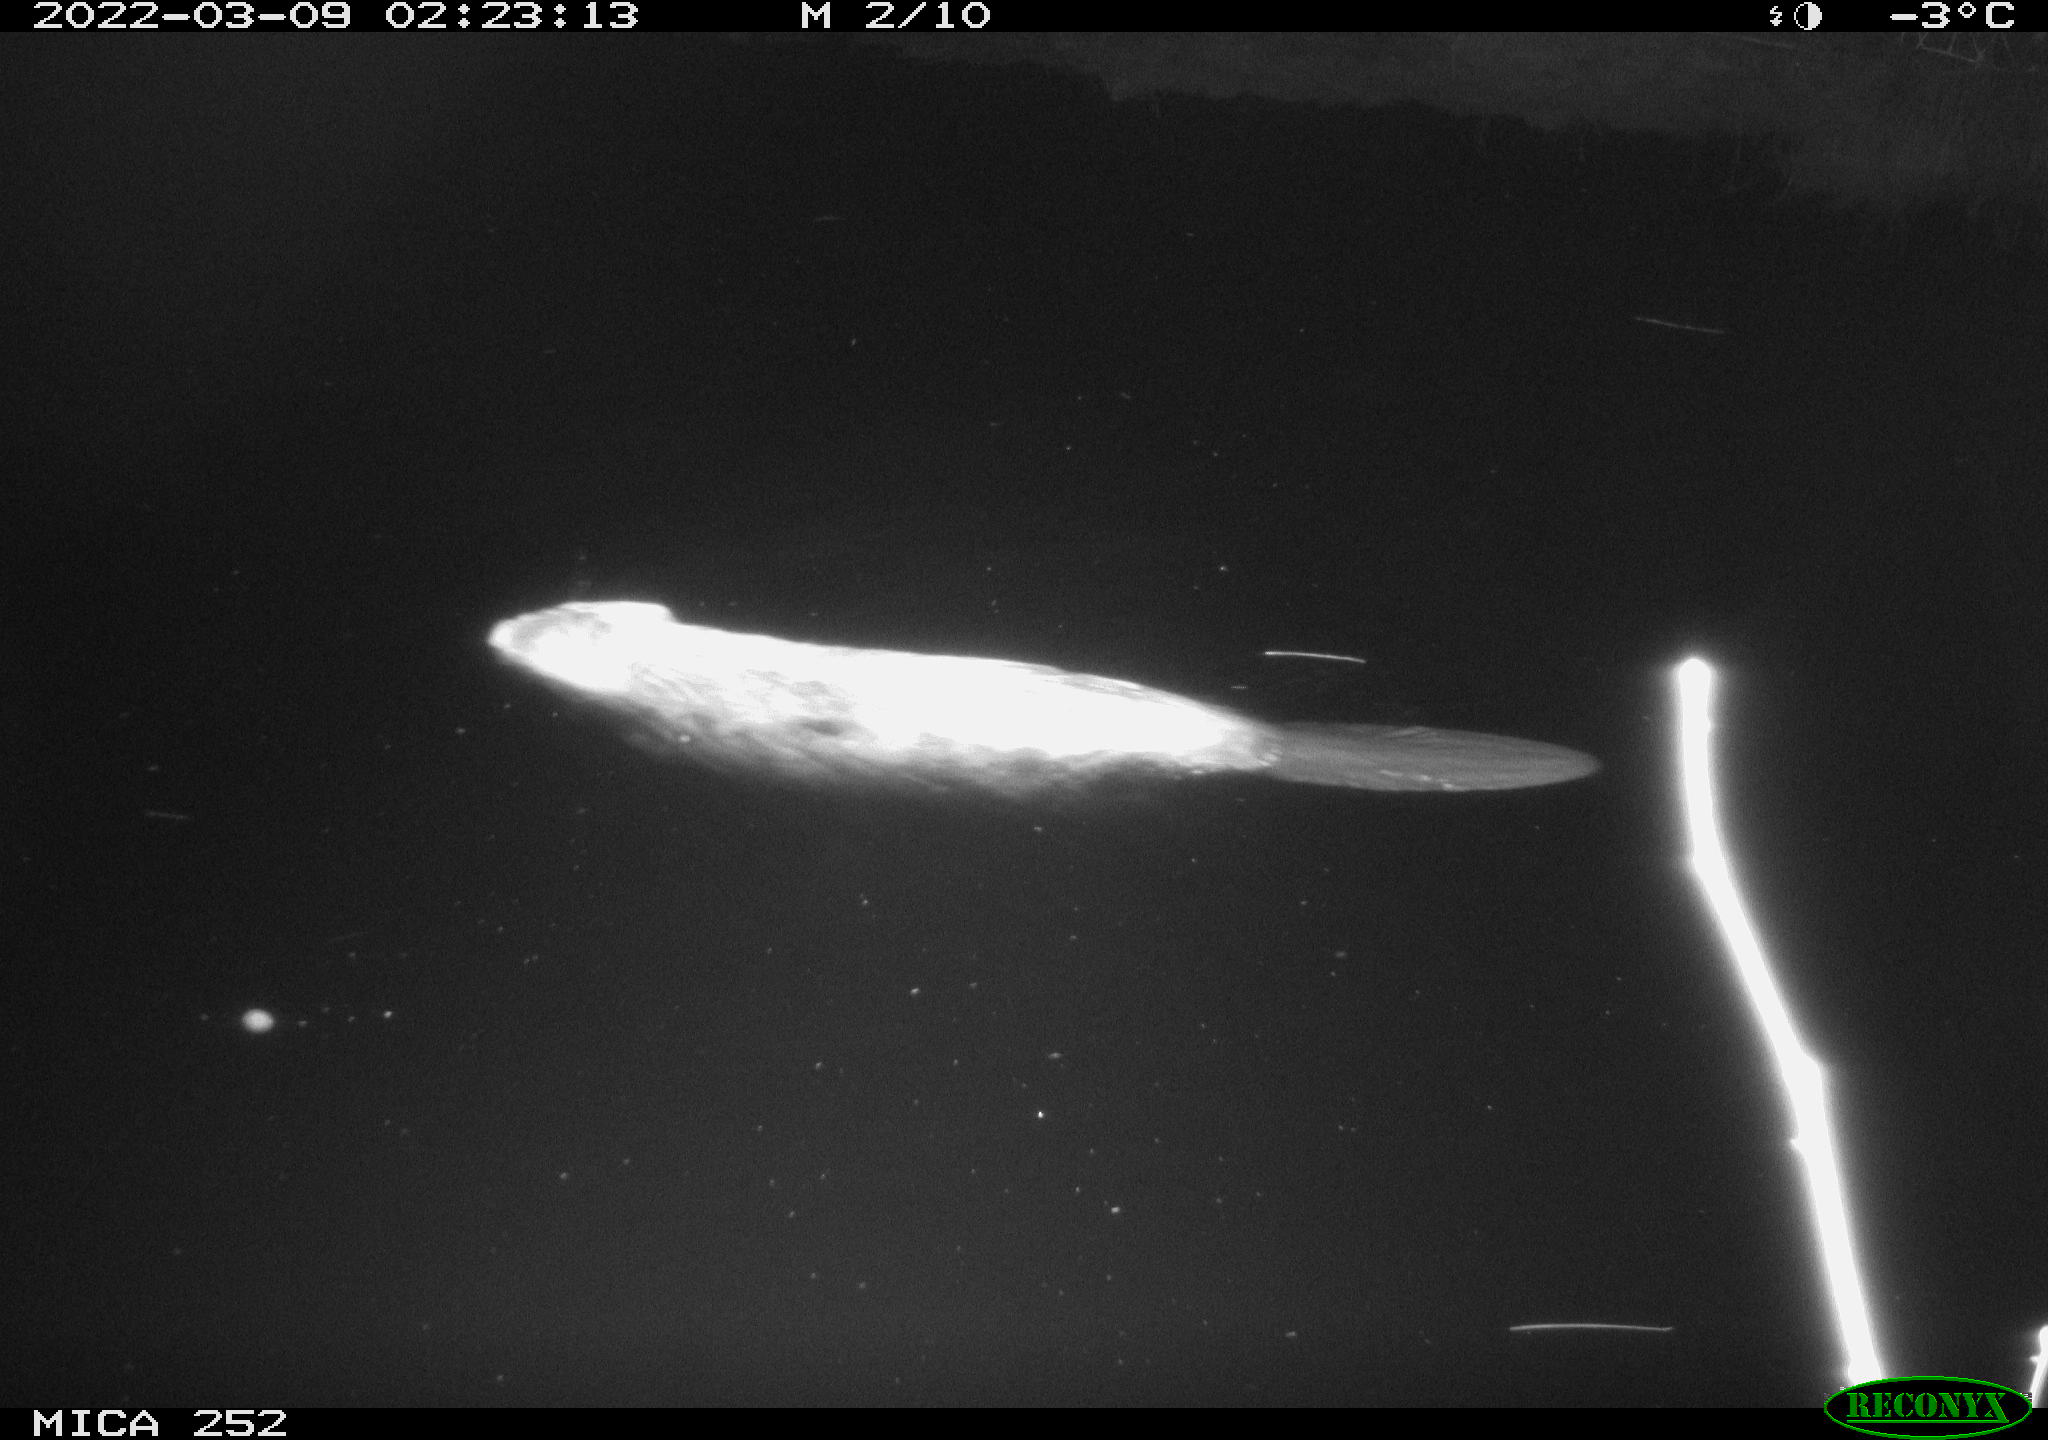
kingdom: Animalia
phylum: Chordata
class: Mammalia
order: Rodentia
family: Castoridae
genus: Castor
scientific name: Castor fiber
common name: Eurasian beaver
